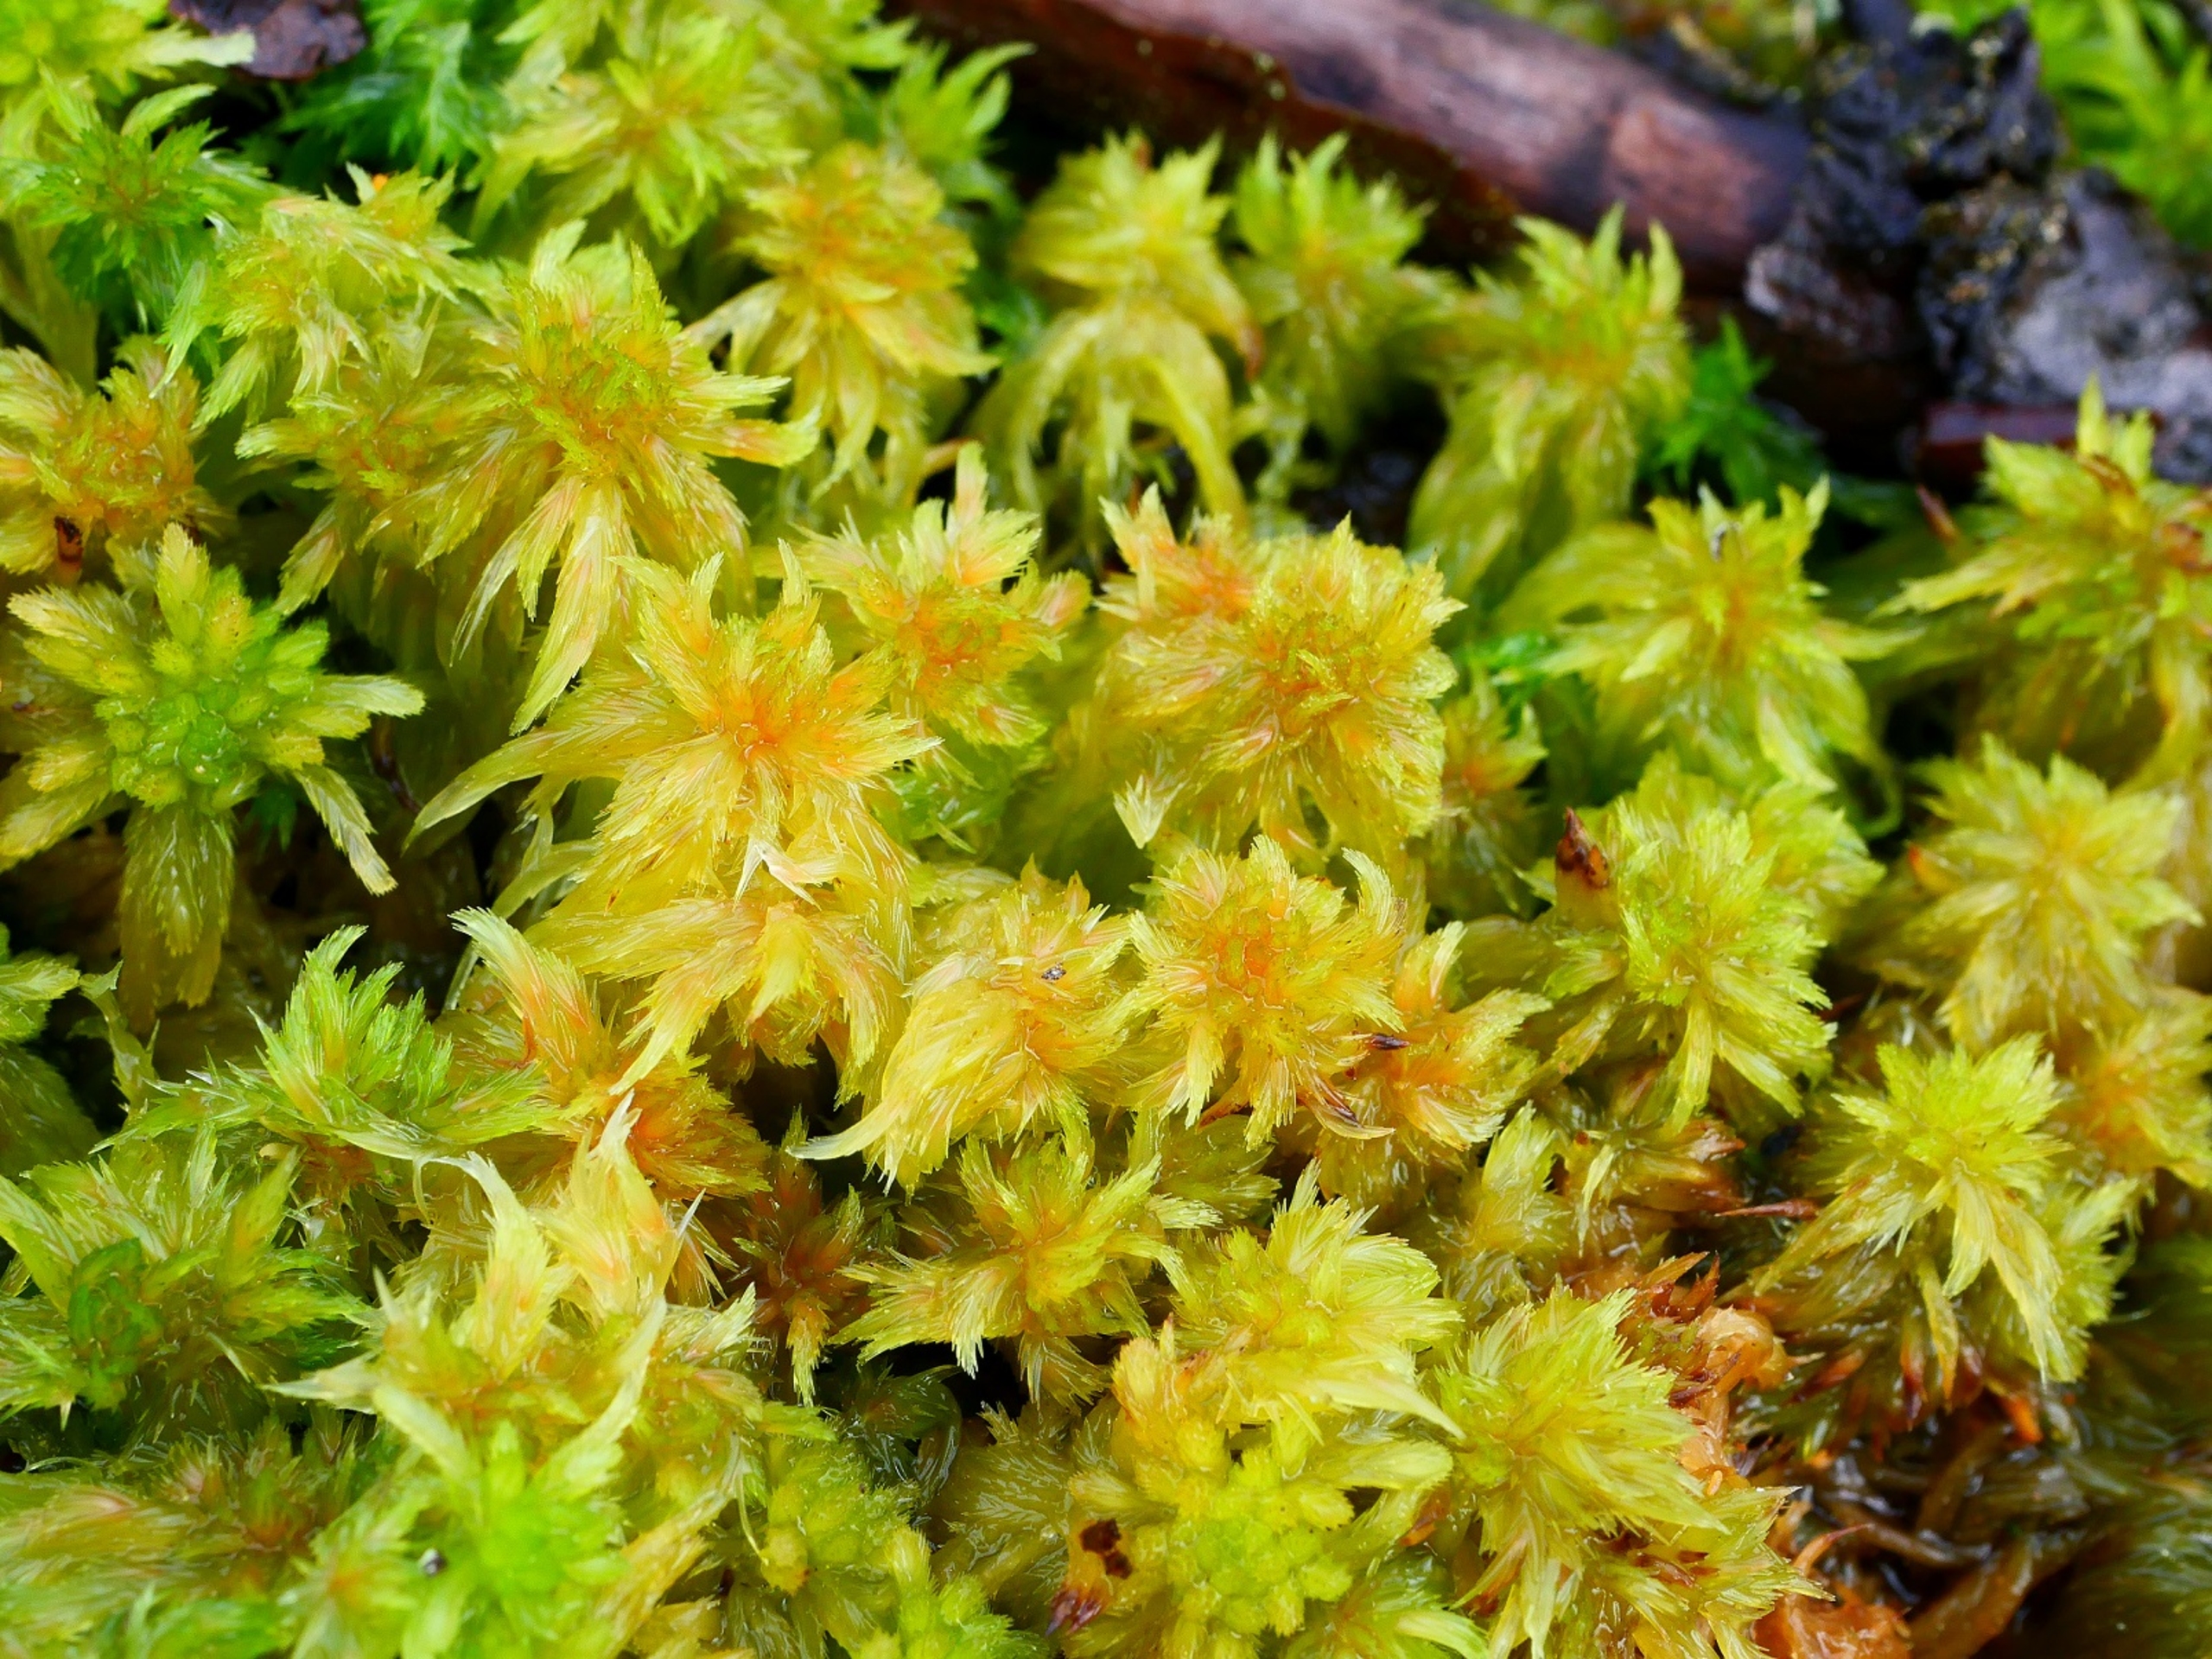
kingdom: Plantae
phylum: Bryophyta
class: Sphagnopsida
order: Sphagnales
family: Sphagnaceae
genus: Sphagnum
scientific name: Sphagnum cuspidatum
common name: Pjusket tørvemos
